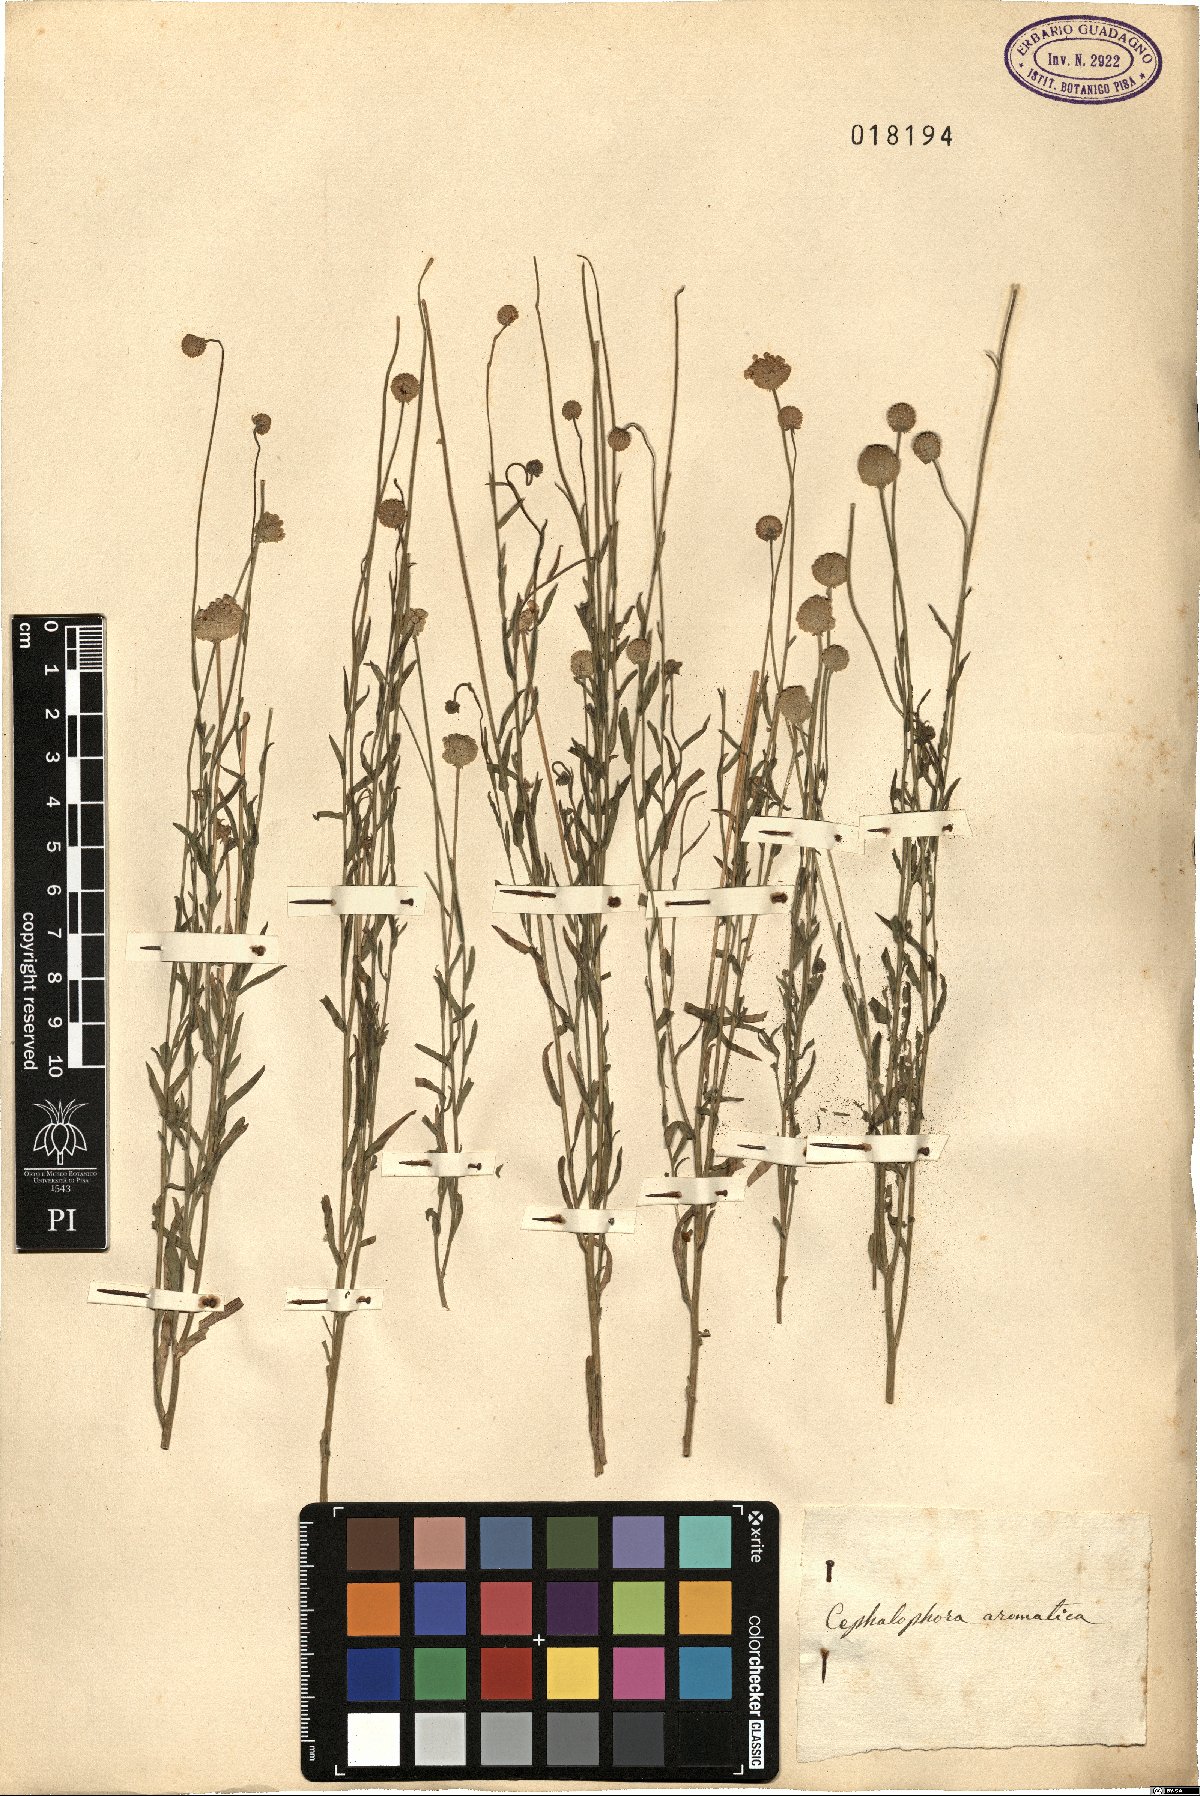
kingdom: Plantae
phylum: Tracheophyta
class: Magnoliopsida
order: Asterales
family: Asteraceae
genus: Helenium
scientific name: Helenium aromaticum
